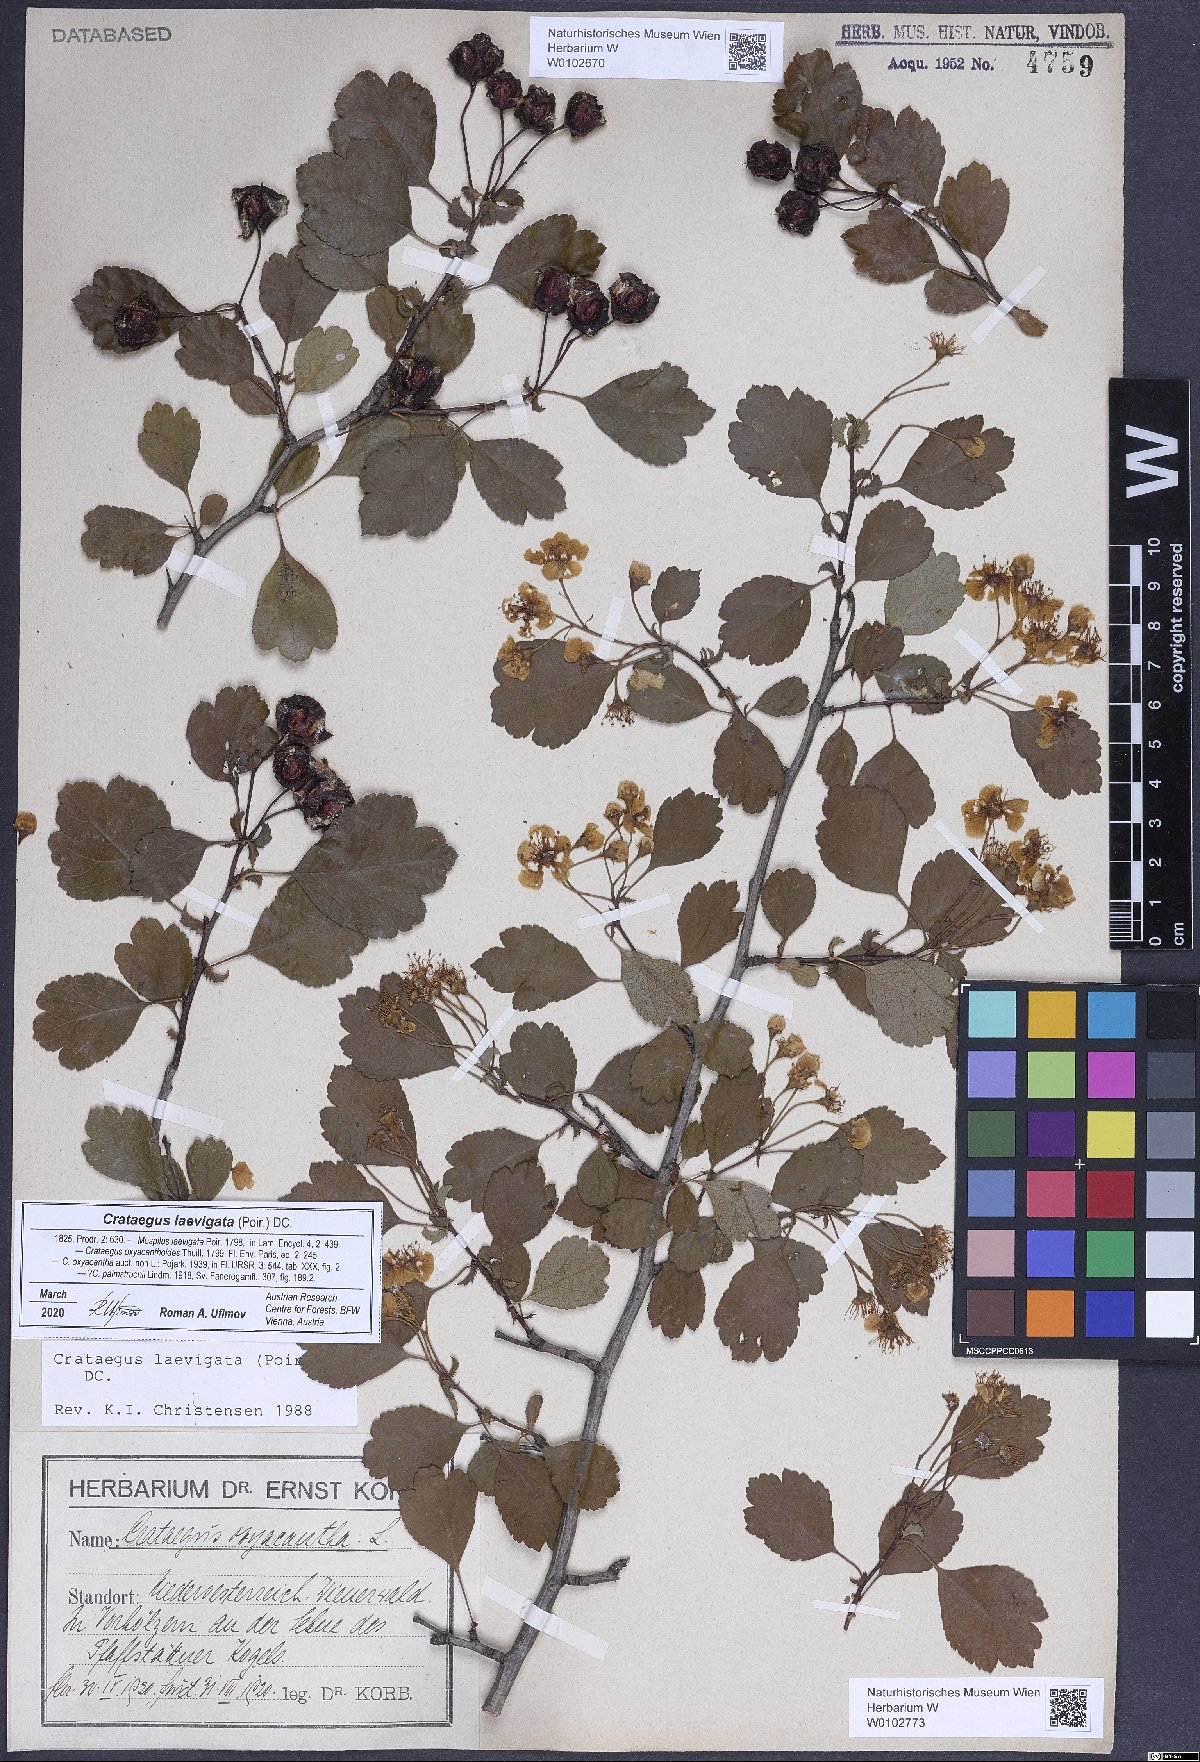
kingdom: Plantae
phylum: Tracheophyta
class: Magnoliopsida
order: Rosales
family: Rosaceae
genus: Crataegus
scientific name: Crataegus laevigata
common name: Midland hawthorn
